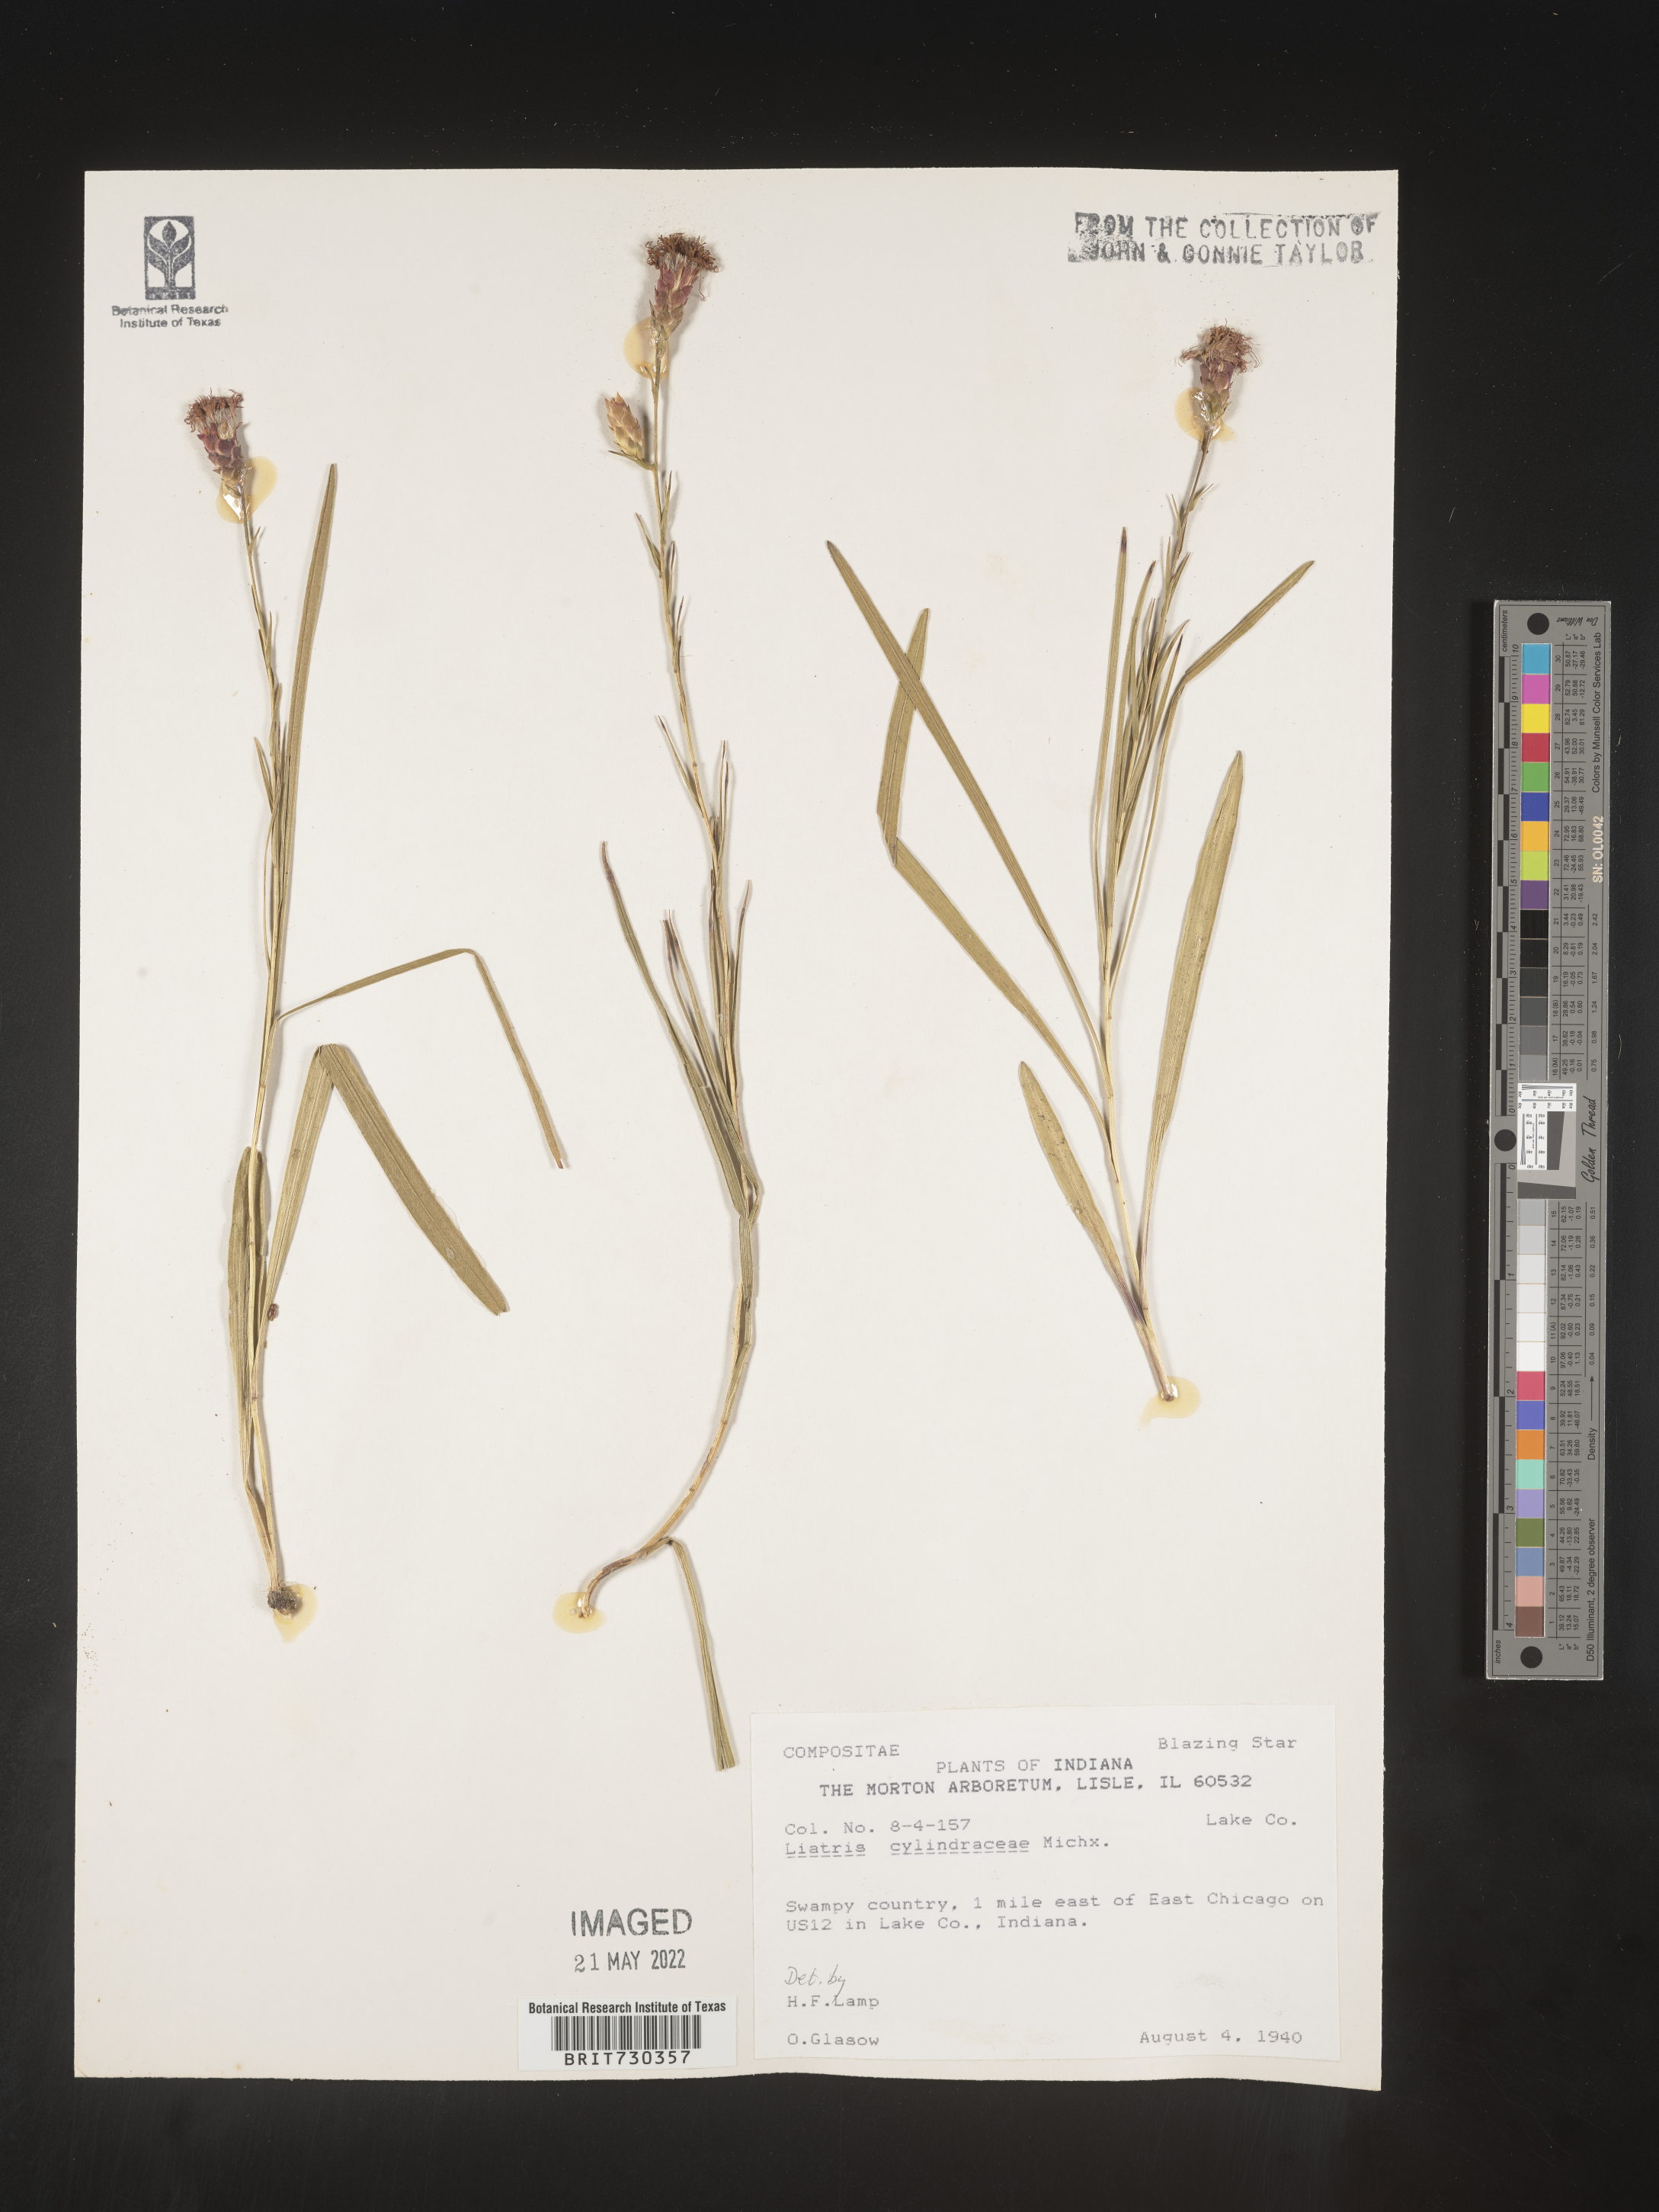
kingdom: Plantae
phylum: Tracheophyta
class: Magnoliopsida
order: Asterales
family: Asteraceae
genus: Liatris
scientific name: Liatris cylindracea
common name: Few-head blazingstar
